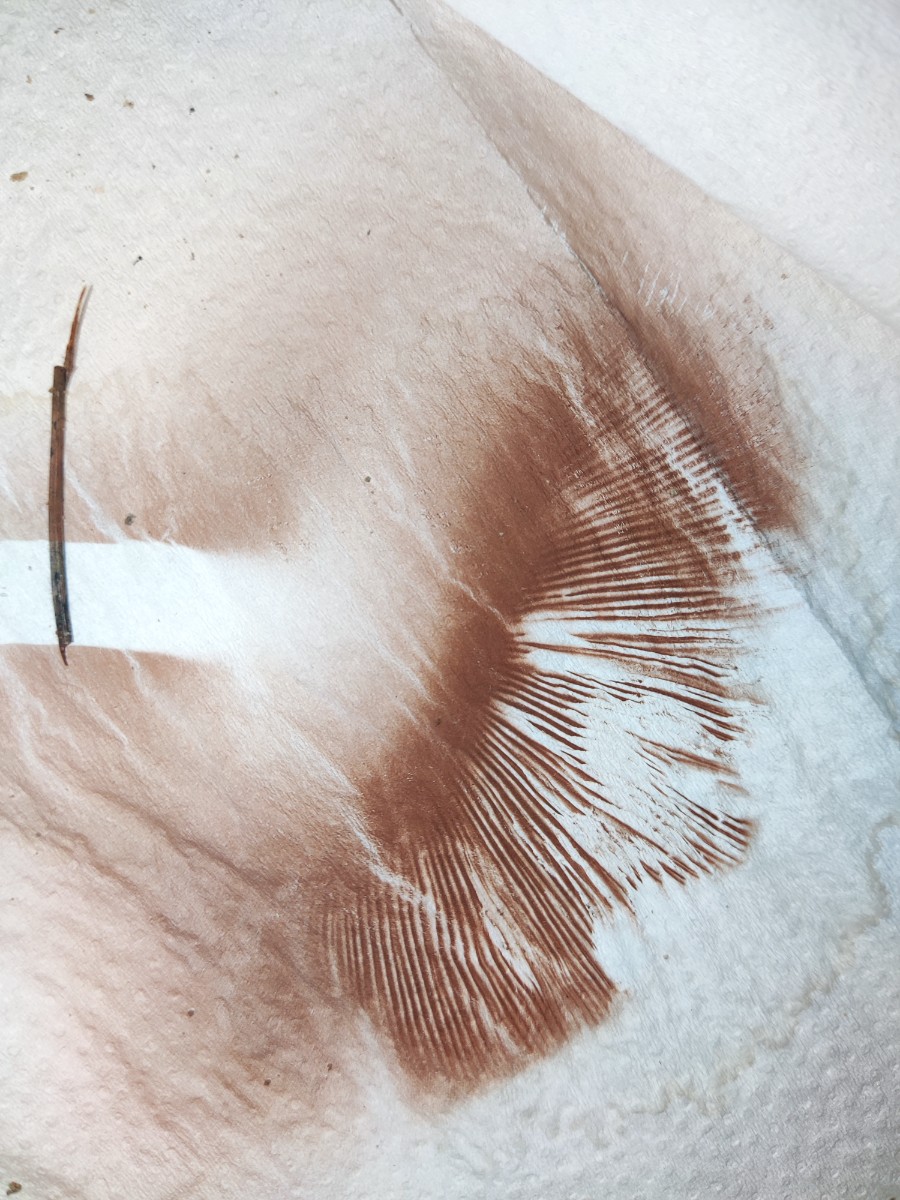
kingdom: Fungi
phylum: Basidiomycota
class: Agaricomycetes
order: Agaricales
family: Pluteaceae
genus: Volvopluteus
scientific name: Volvopluteus gloiocephalus
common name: høj posesvamp
